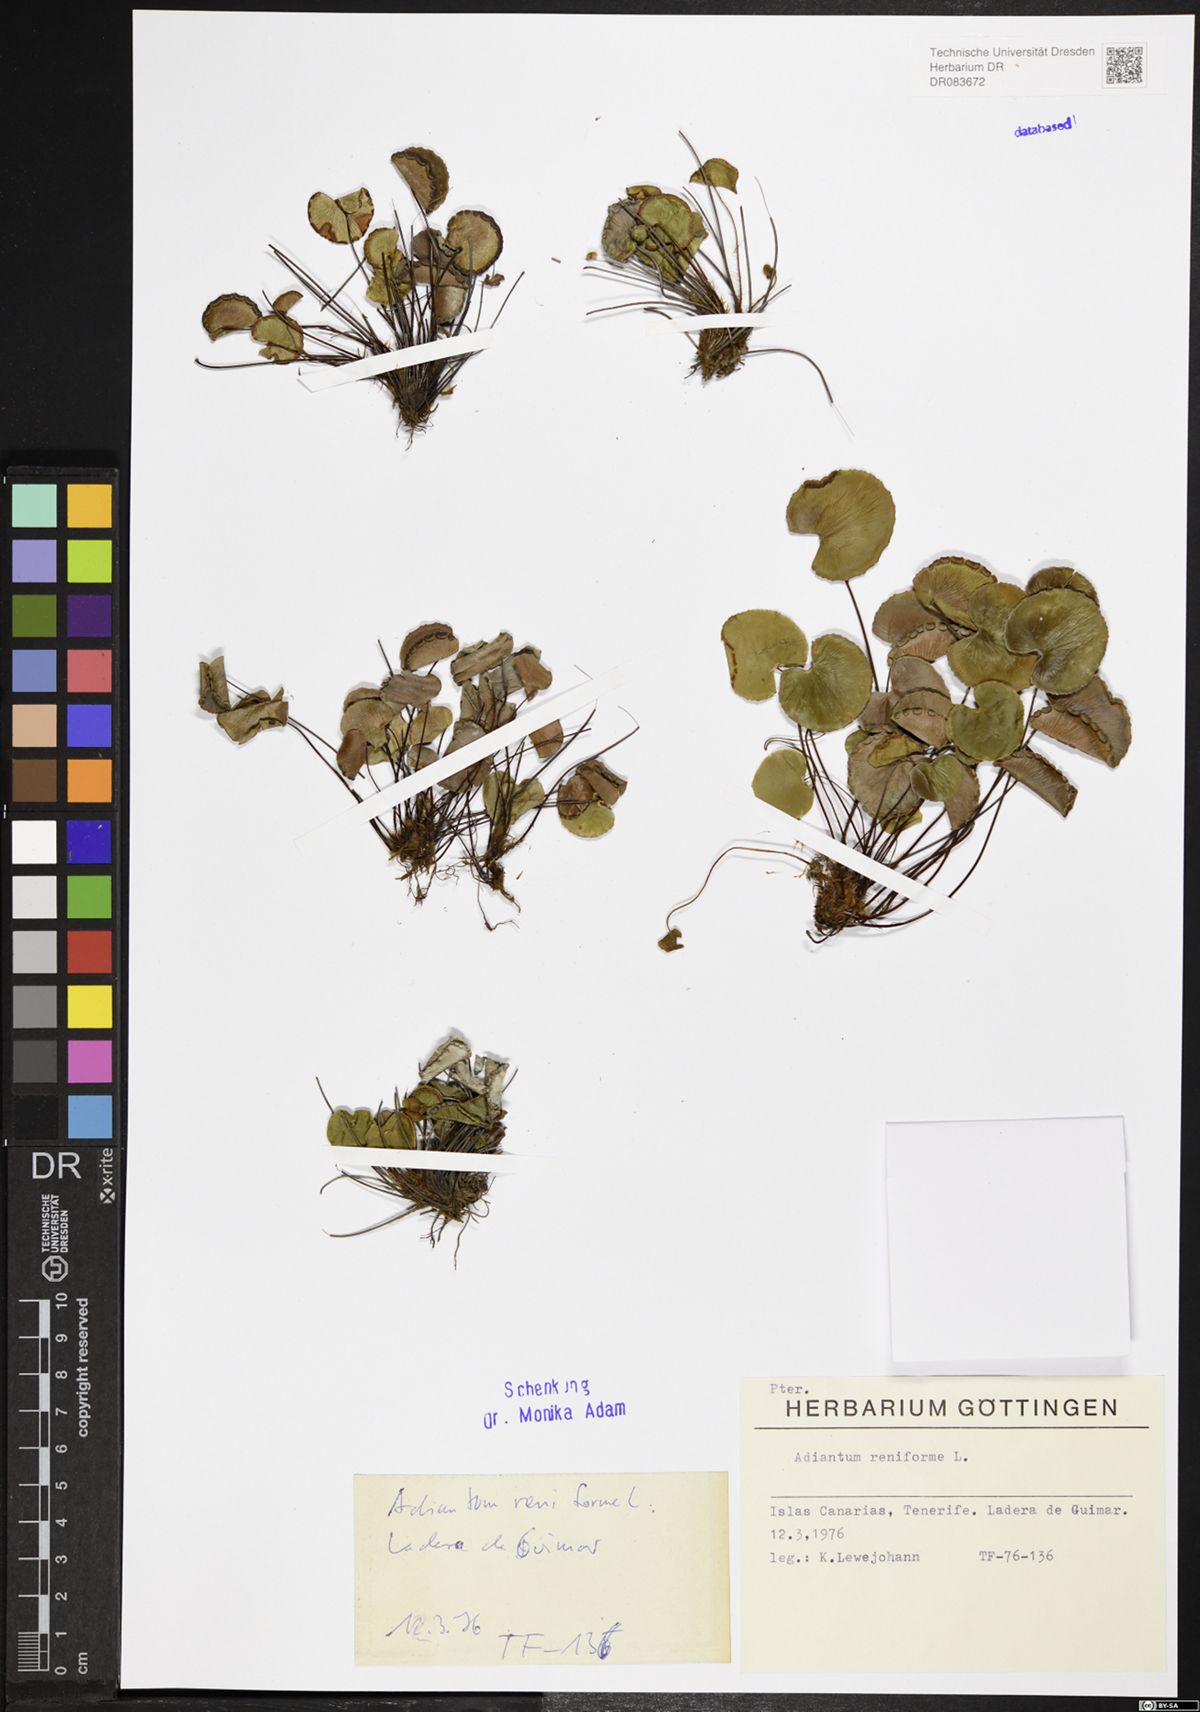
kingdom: Plantae
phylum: Tracheophyta
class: Polypodiopsida
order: Polypodiales
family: Pteridaceae
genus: Adiantum
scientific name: Adiantum reniforme
